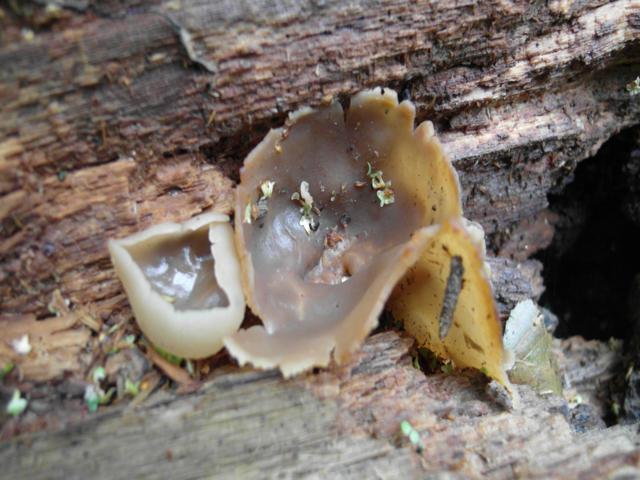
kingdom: Fungi
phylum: Ascomycota
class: Pezizomycetes
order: Pezizales
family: Pezizaceae
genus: Peziza
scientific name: Peziza varia
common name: Ved-bægersvamp
